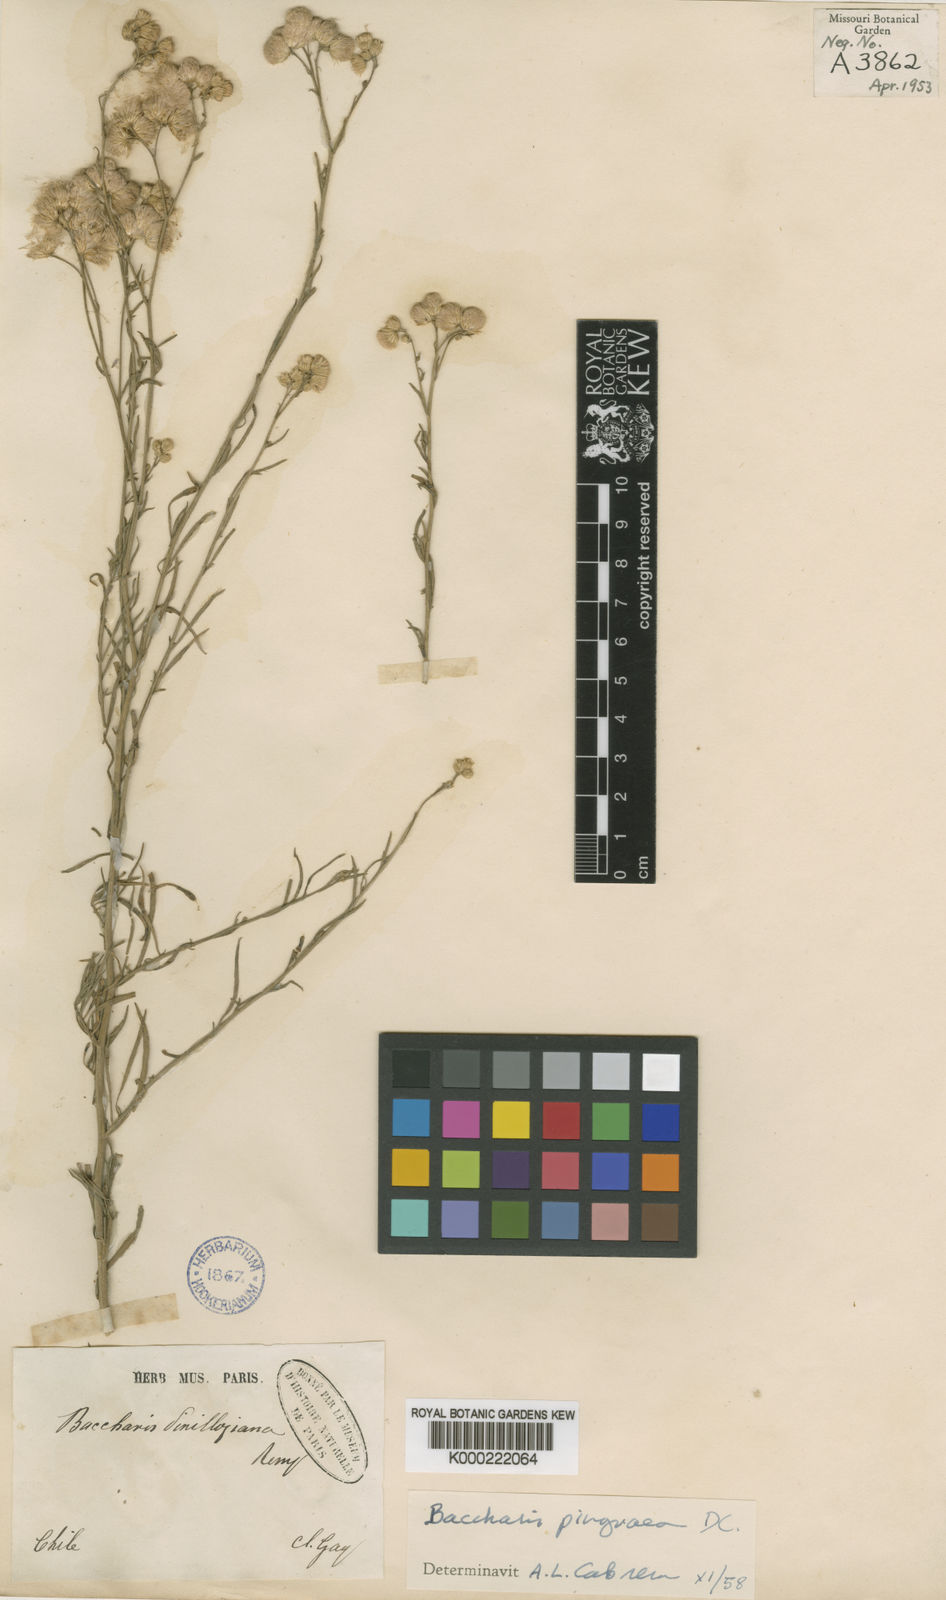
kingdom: Plantae
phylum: Tracheophyta
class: Magnoliopsida
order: Asterales
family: Asteraceae
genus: Baccharis
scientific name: Baccharis glutinosa
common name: Saltmarsh baccharis
